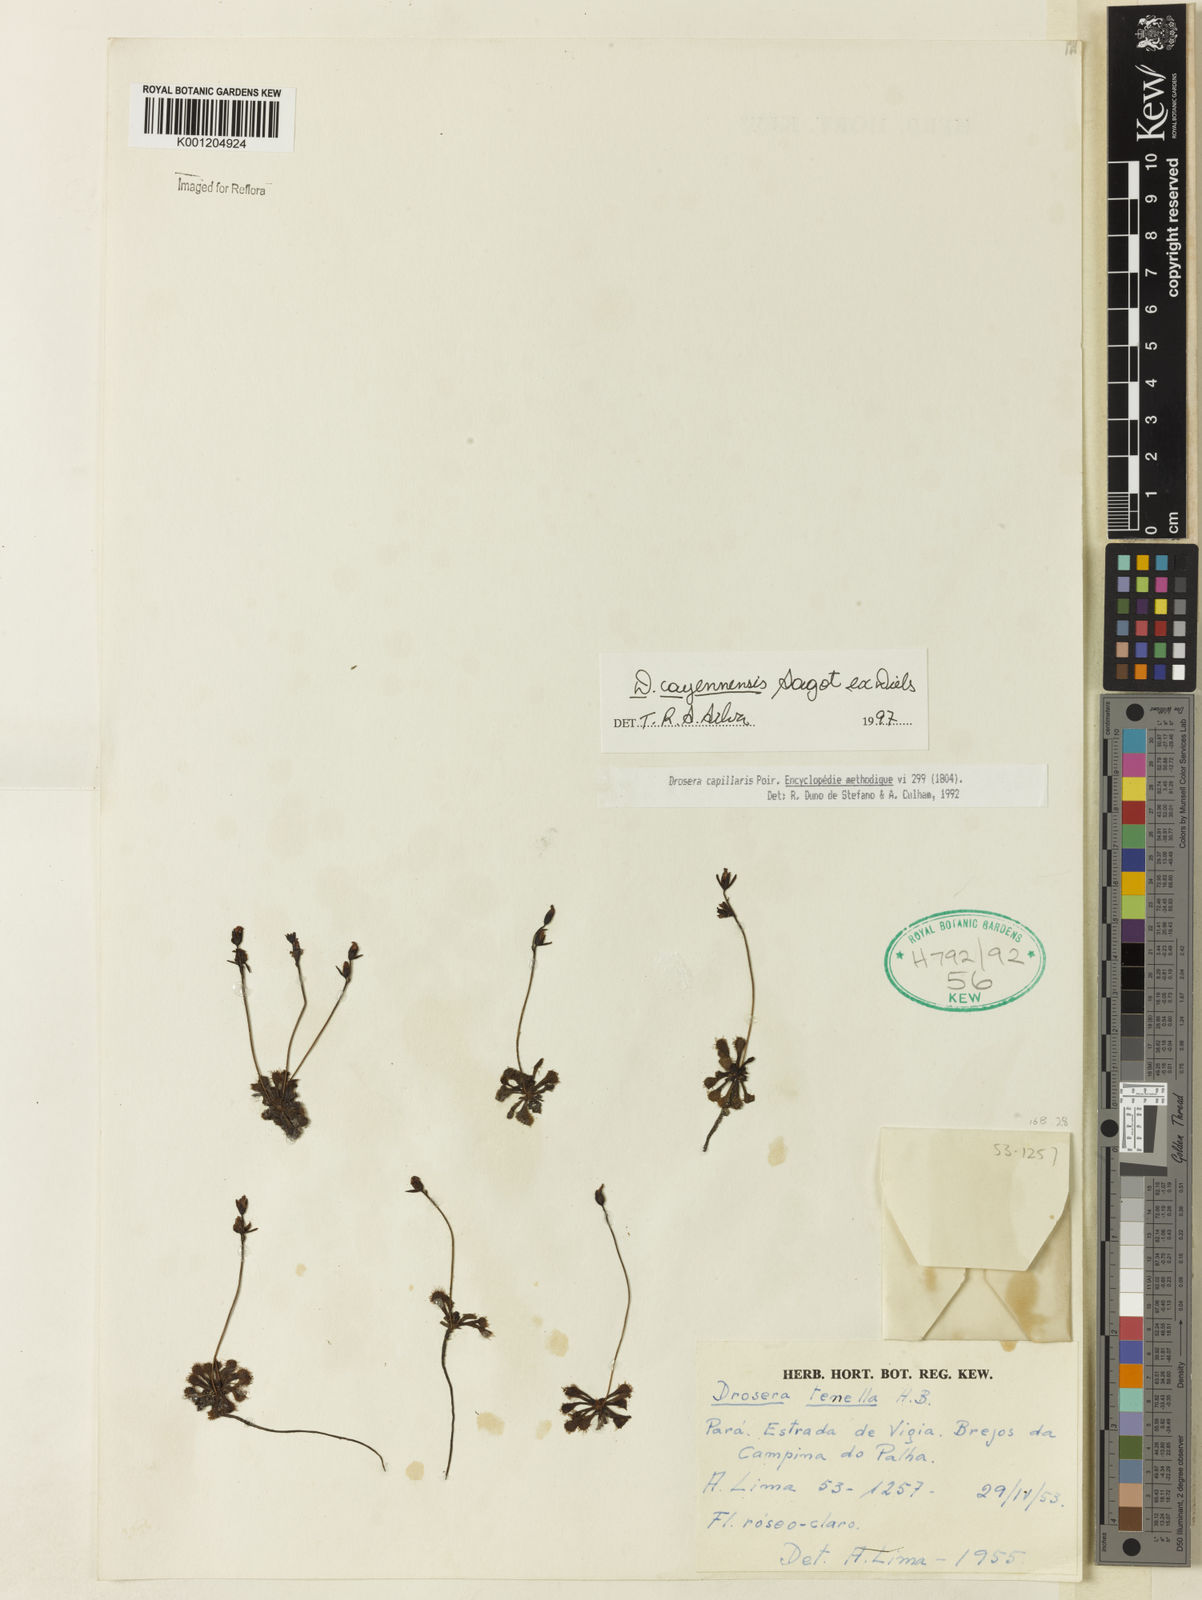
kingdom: Plantae
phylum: Tracheophyta
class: Magnoliopsida
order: Caryophyllales
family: Droseraceae
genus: Drosera
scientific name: Drosera cayennensis
